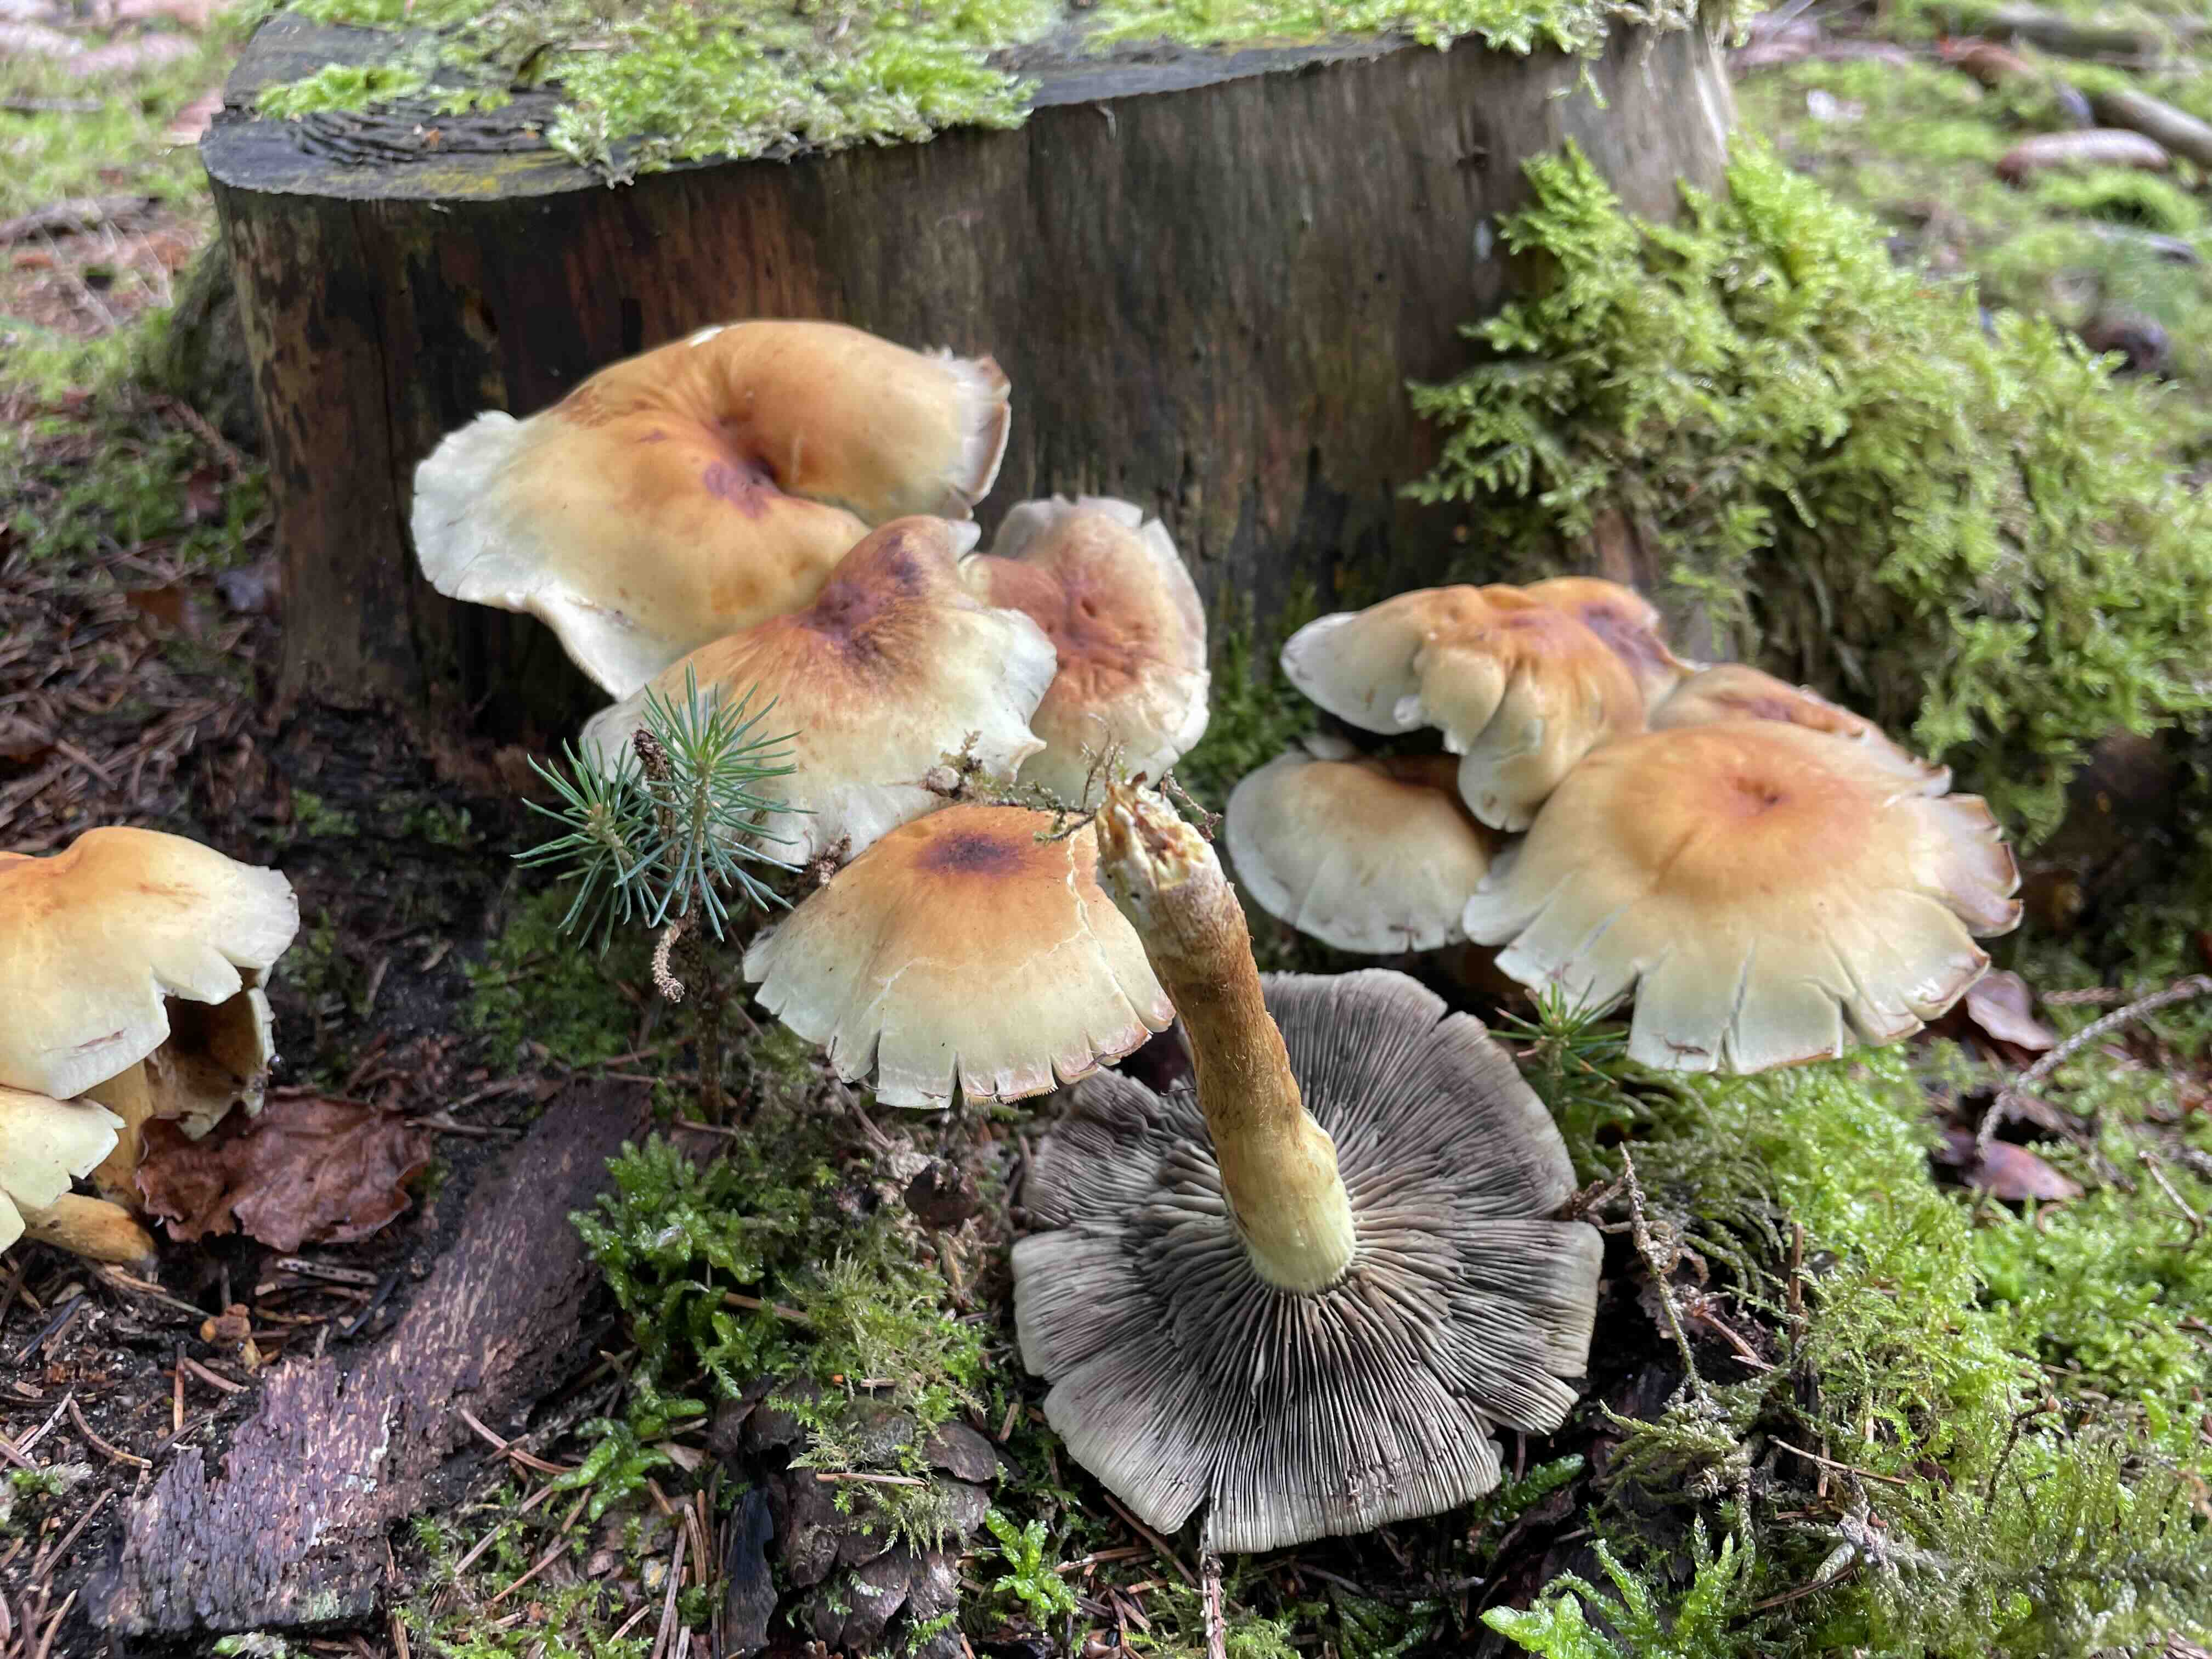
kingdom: Fungi
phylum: Basidiomycota
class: Agaricomycetes
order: Agaricales
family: Strophariaceae
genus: Hypholoma
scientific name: Hypholoma fasciculare
